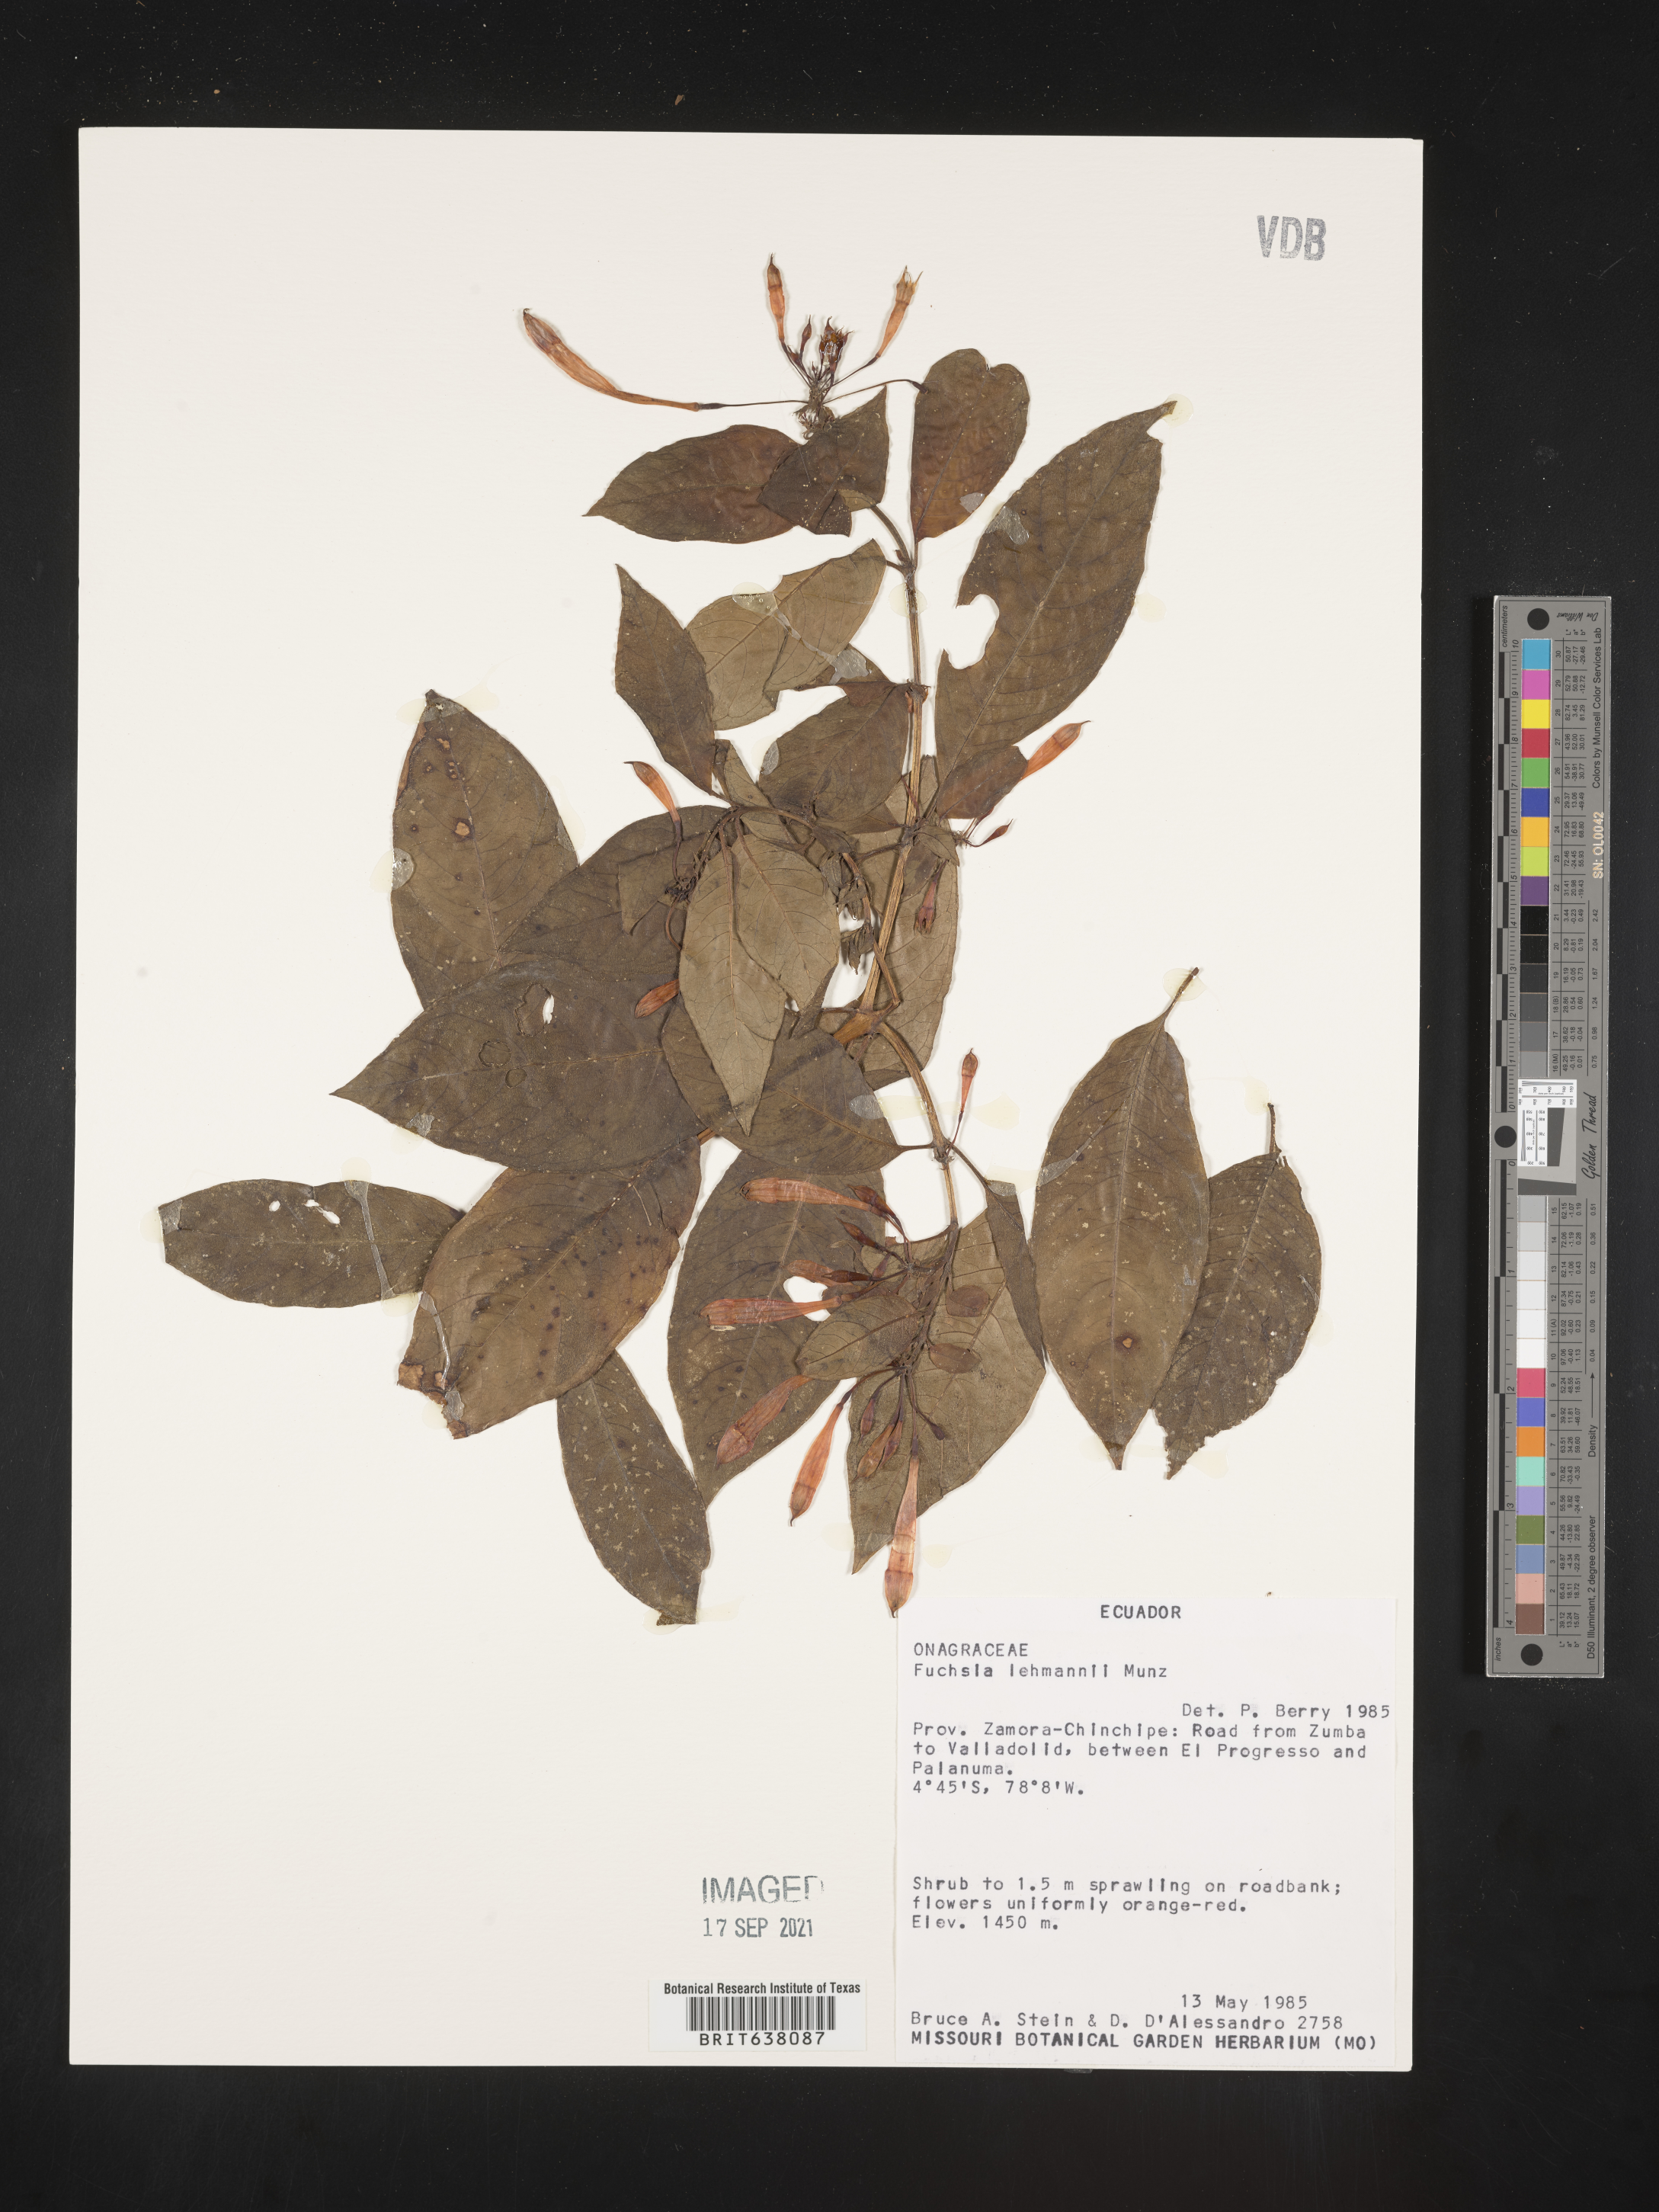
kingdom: Plantae
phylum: Tracheophyta
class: Magnoliopsida
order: Myrtales
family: Onagraceae
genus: Fuchsia
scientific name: Fuchsia
